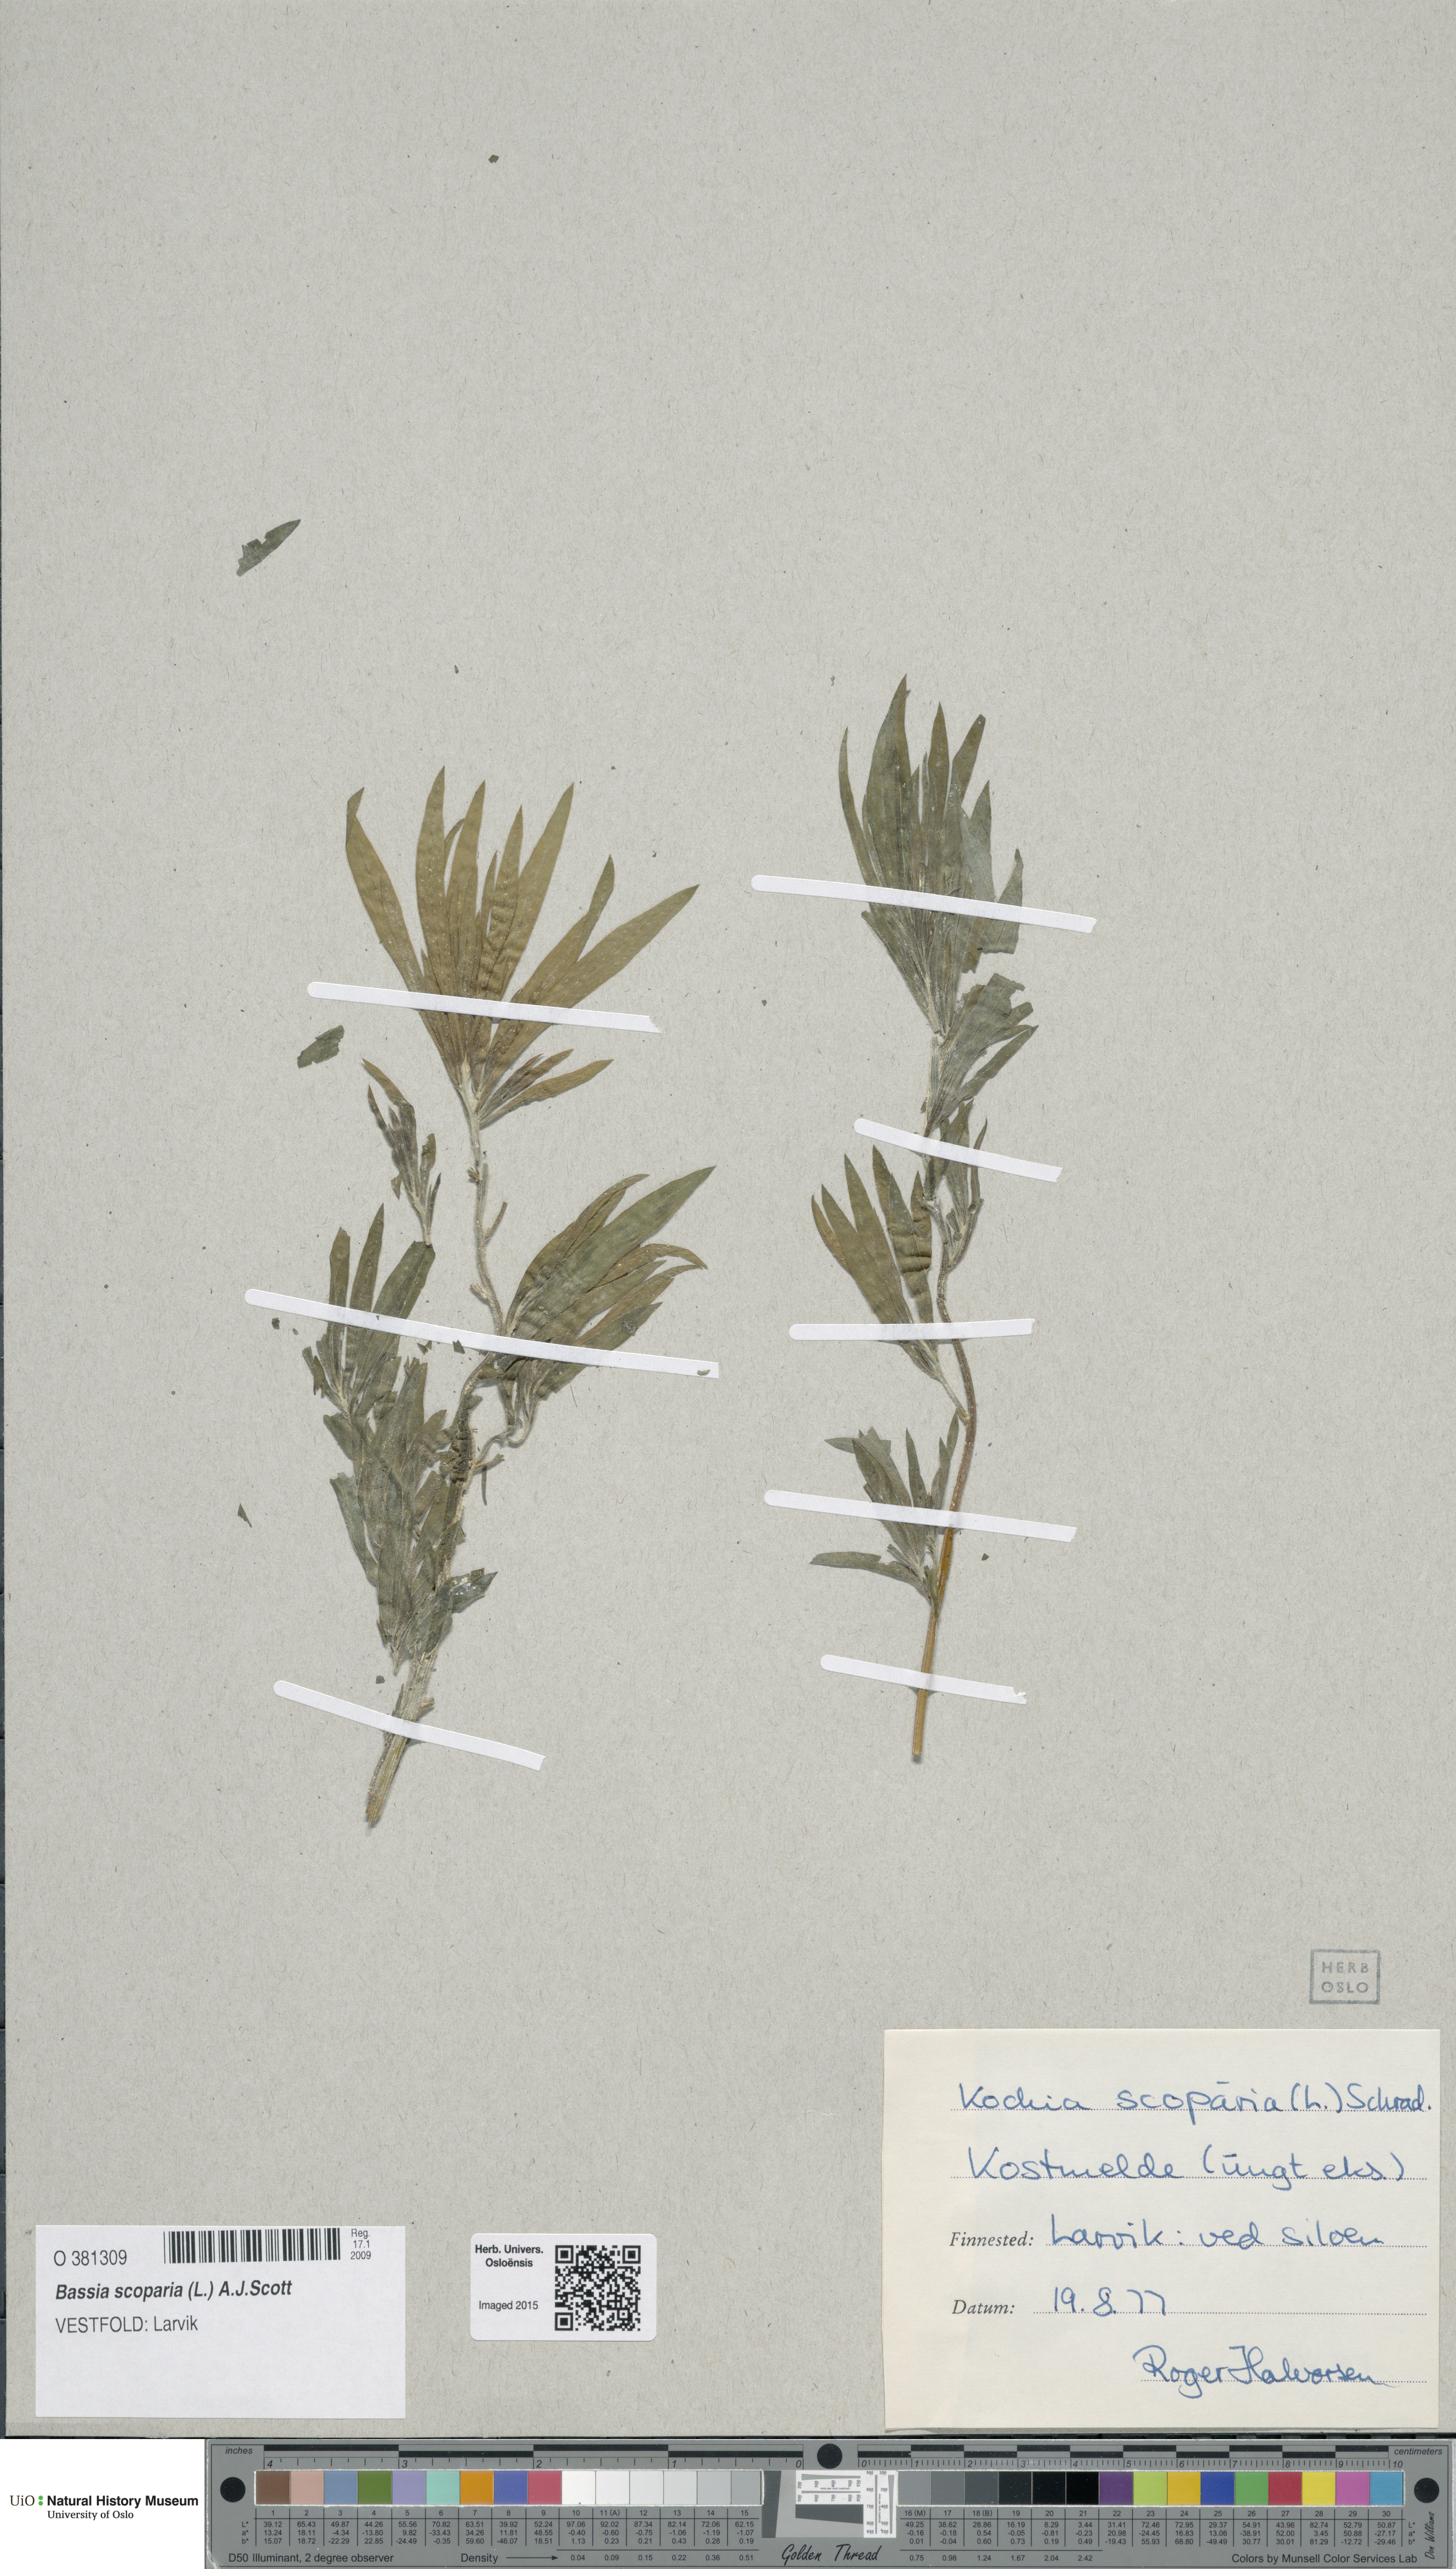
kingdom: Plantae
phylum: Tracheophyta
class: Magnoliopsida
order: Caryophyllales
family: Amaranthaceae
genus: Bassia
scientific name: Bassia scoparia
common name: Belvedere
